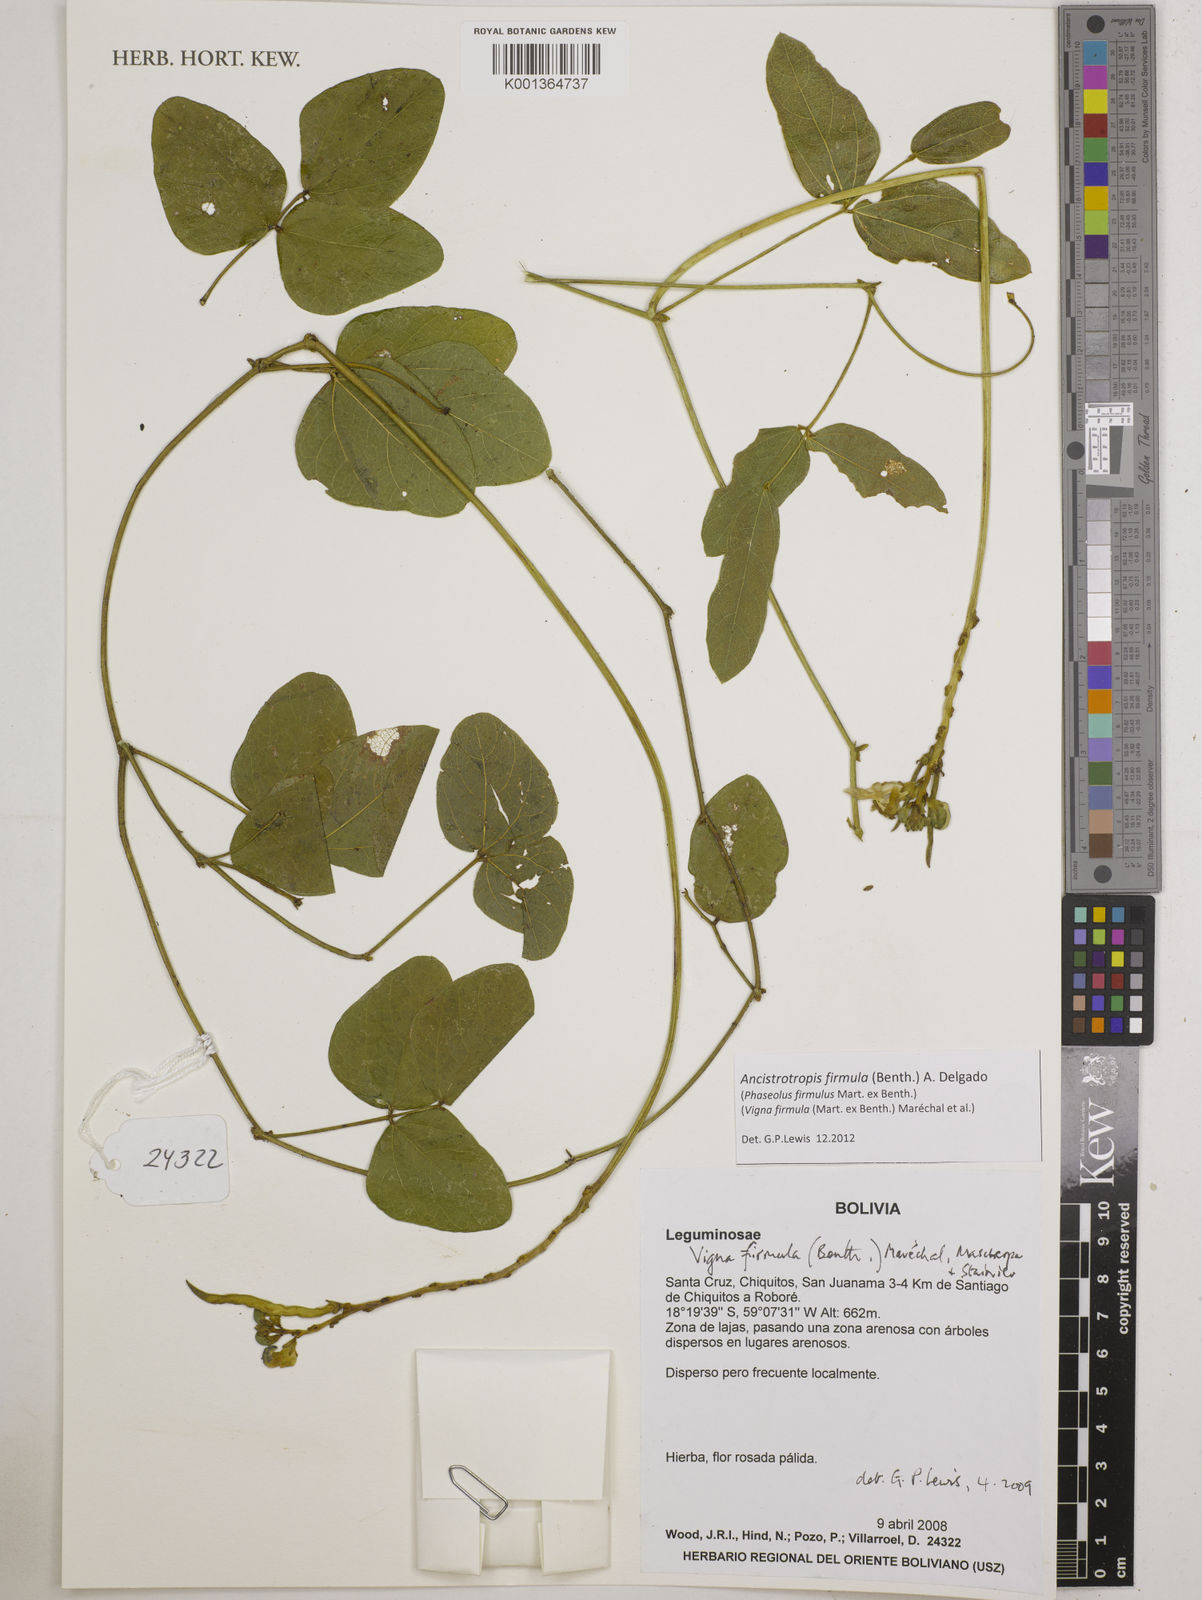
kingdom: Plantae
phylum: Tracheophyta
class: Magnoliopsida
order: Fabales
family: Fabaceae
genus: Ancistrotropis
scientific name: Ancistrotropis firmula
